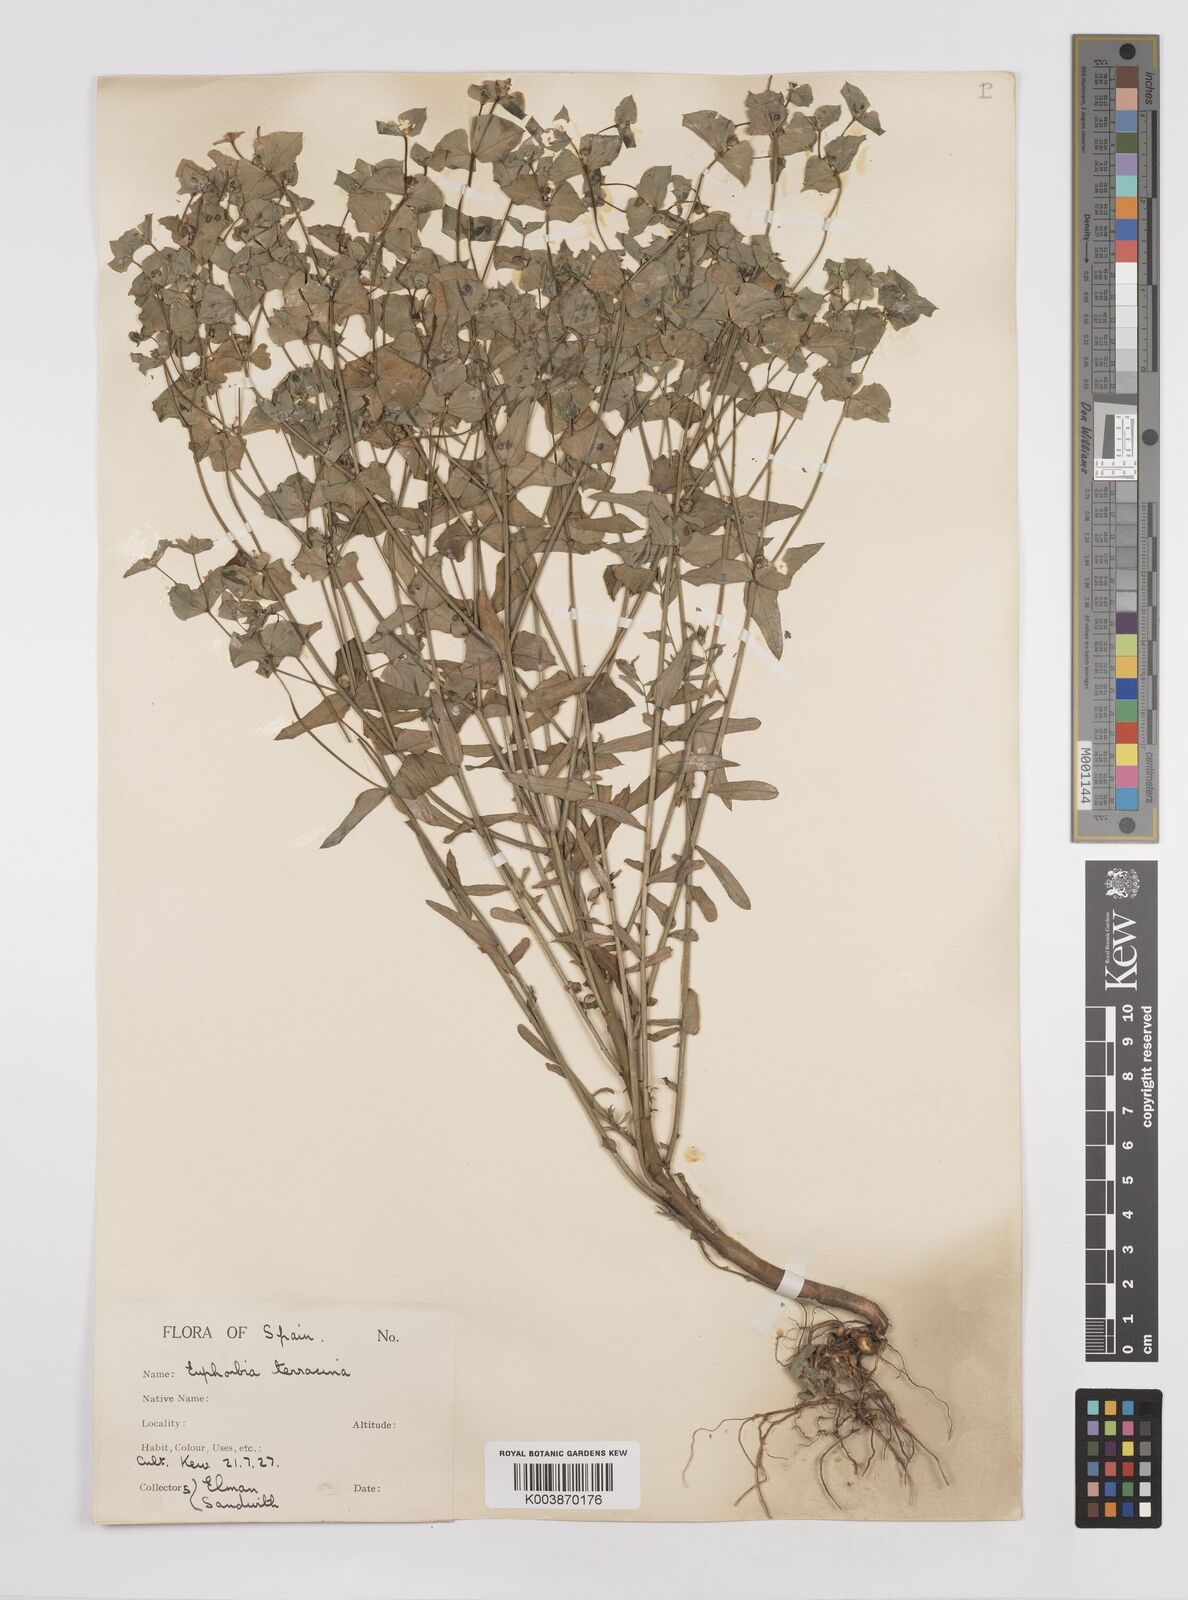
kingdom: Plantae
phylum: Tracheophyta
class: Magnoliopsida
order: Malpighiales
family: Euphorbiaceae
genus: Euphorbia
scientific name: Euphorbia terracina
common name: Geraldton carnation weed
